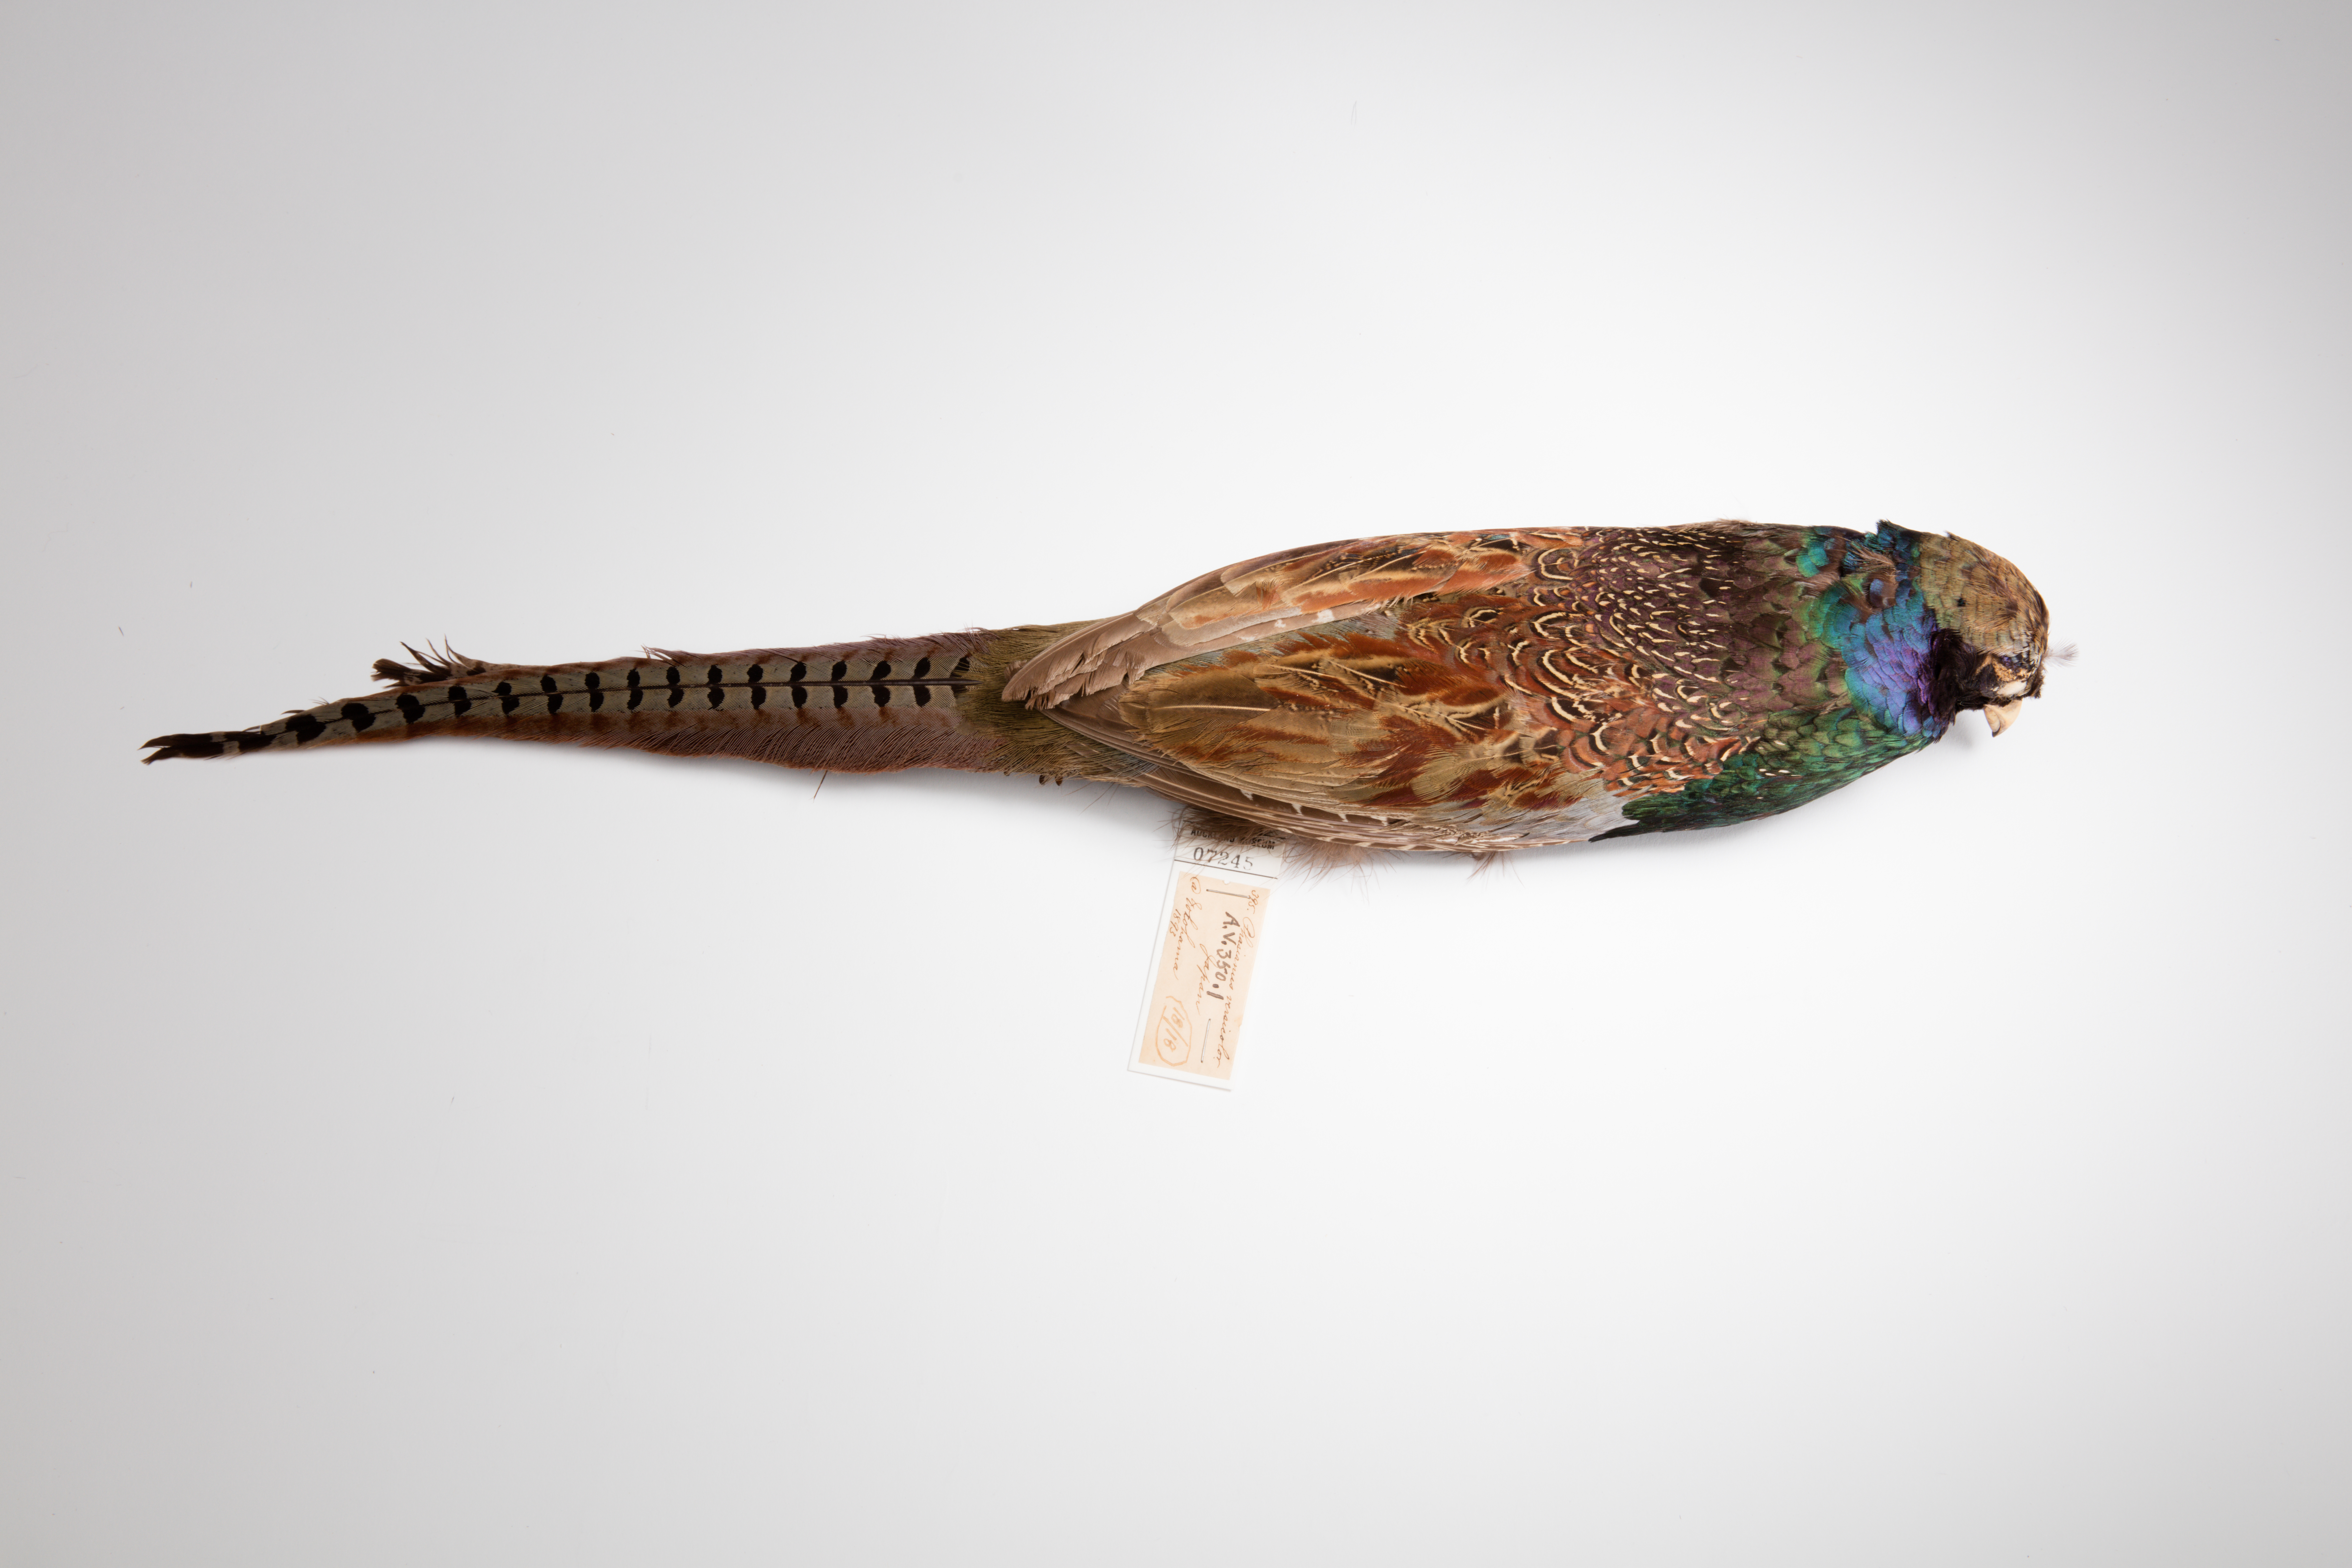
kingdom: Animalia
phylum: Chordata
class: Aves
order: Galliformes
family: Phasianidae
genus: Phasianus
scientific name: Phasianus versicolor
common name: Green pheasant
